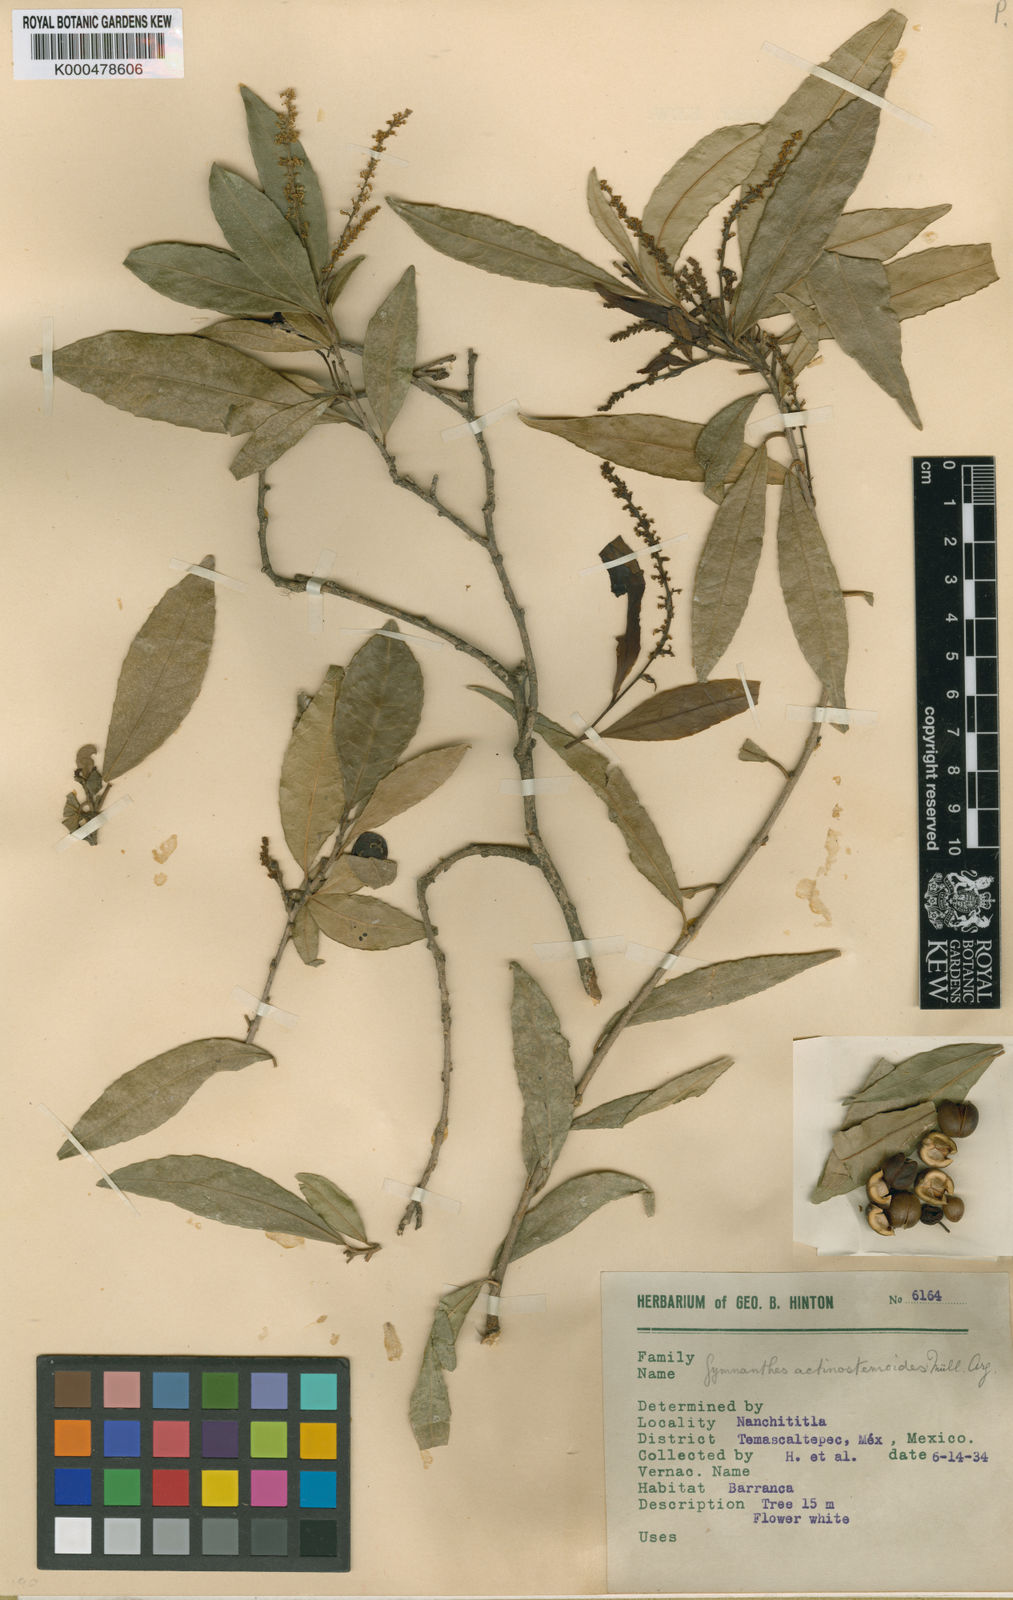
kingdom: Plantae
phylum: Tracheophyta
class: Magnoliopsida
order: Malpighiales
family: Euphorbiaceae
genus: Gymnanthes
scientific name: Gymnanthes
